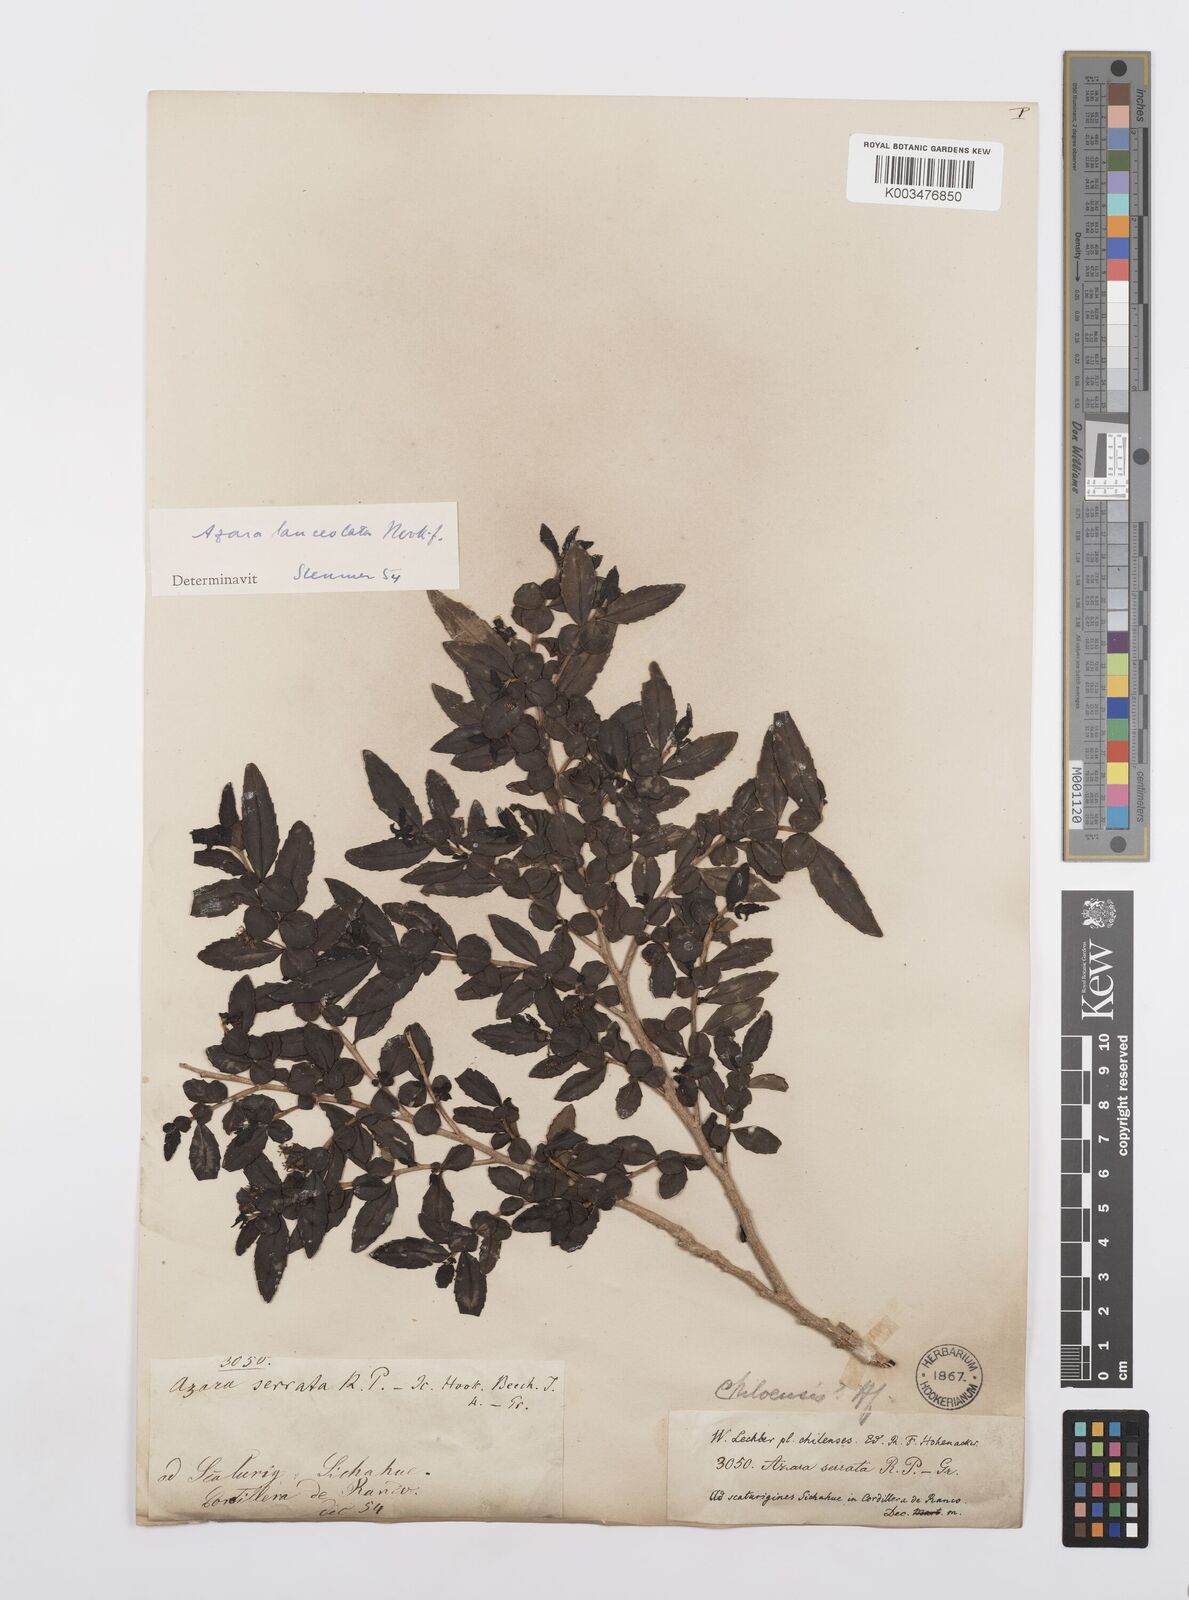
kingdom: Plantae
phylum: Tracheophyta
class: Magnoliopsida
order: Malpighiales
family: Salicaceae
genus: Azara
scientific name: Azara lanceolata
